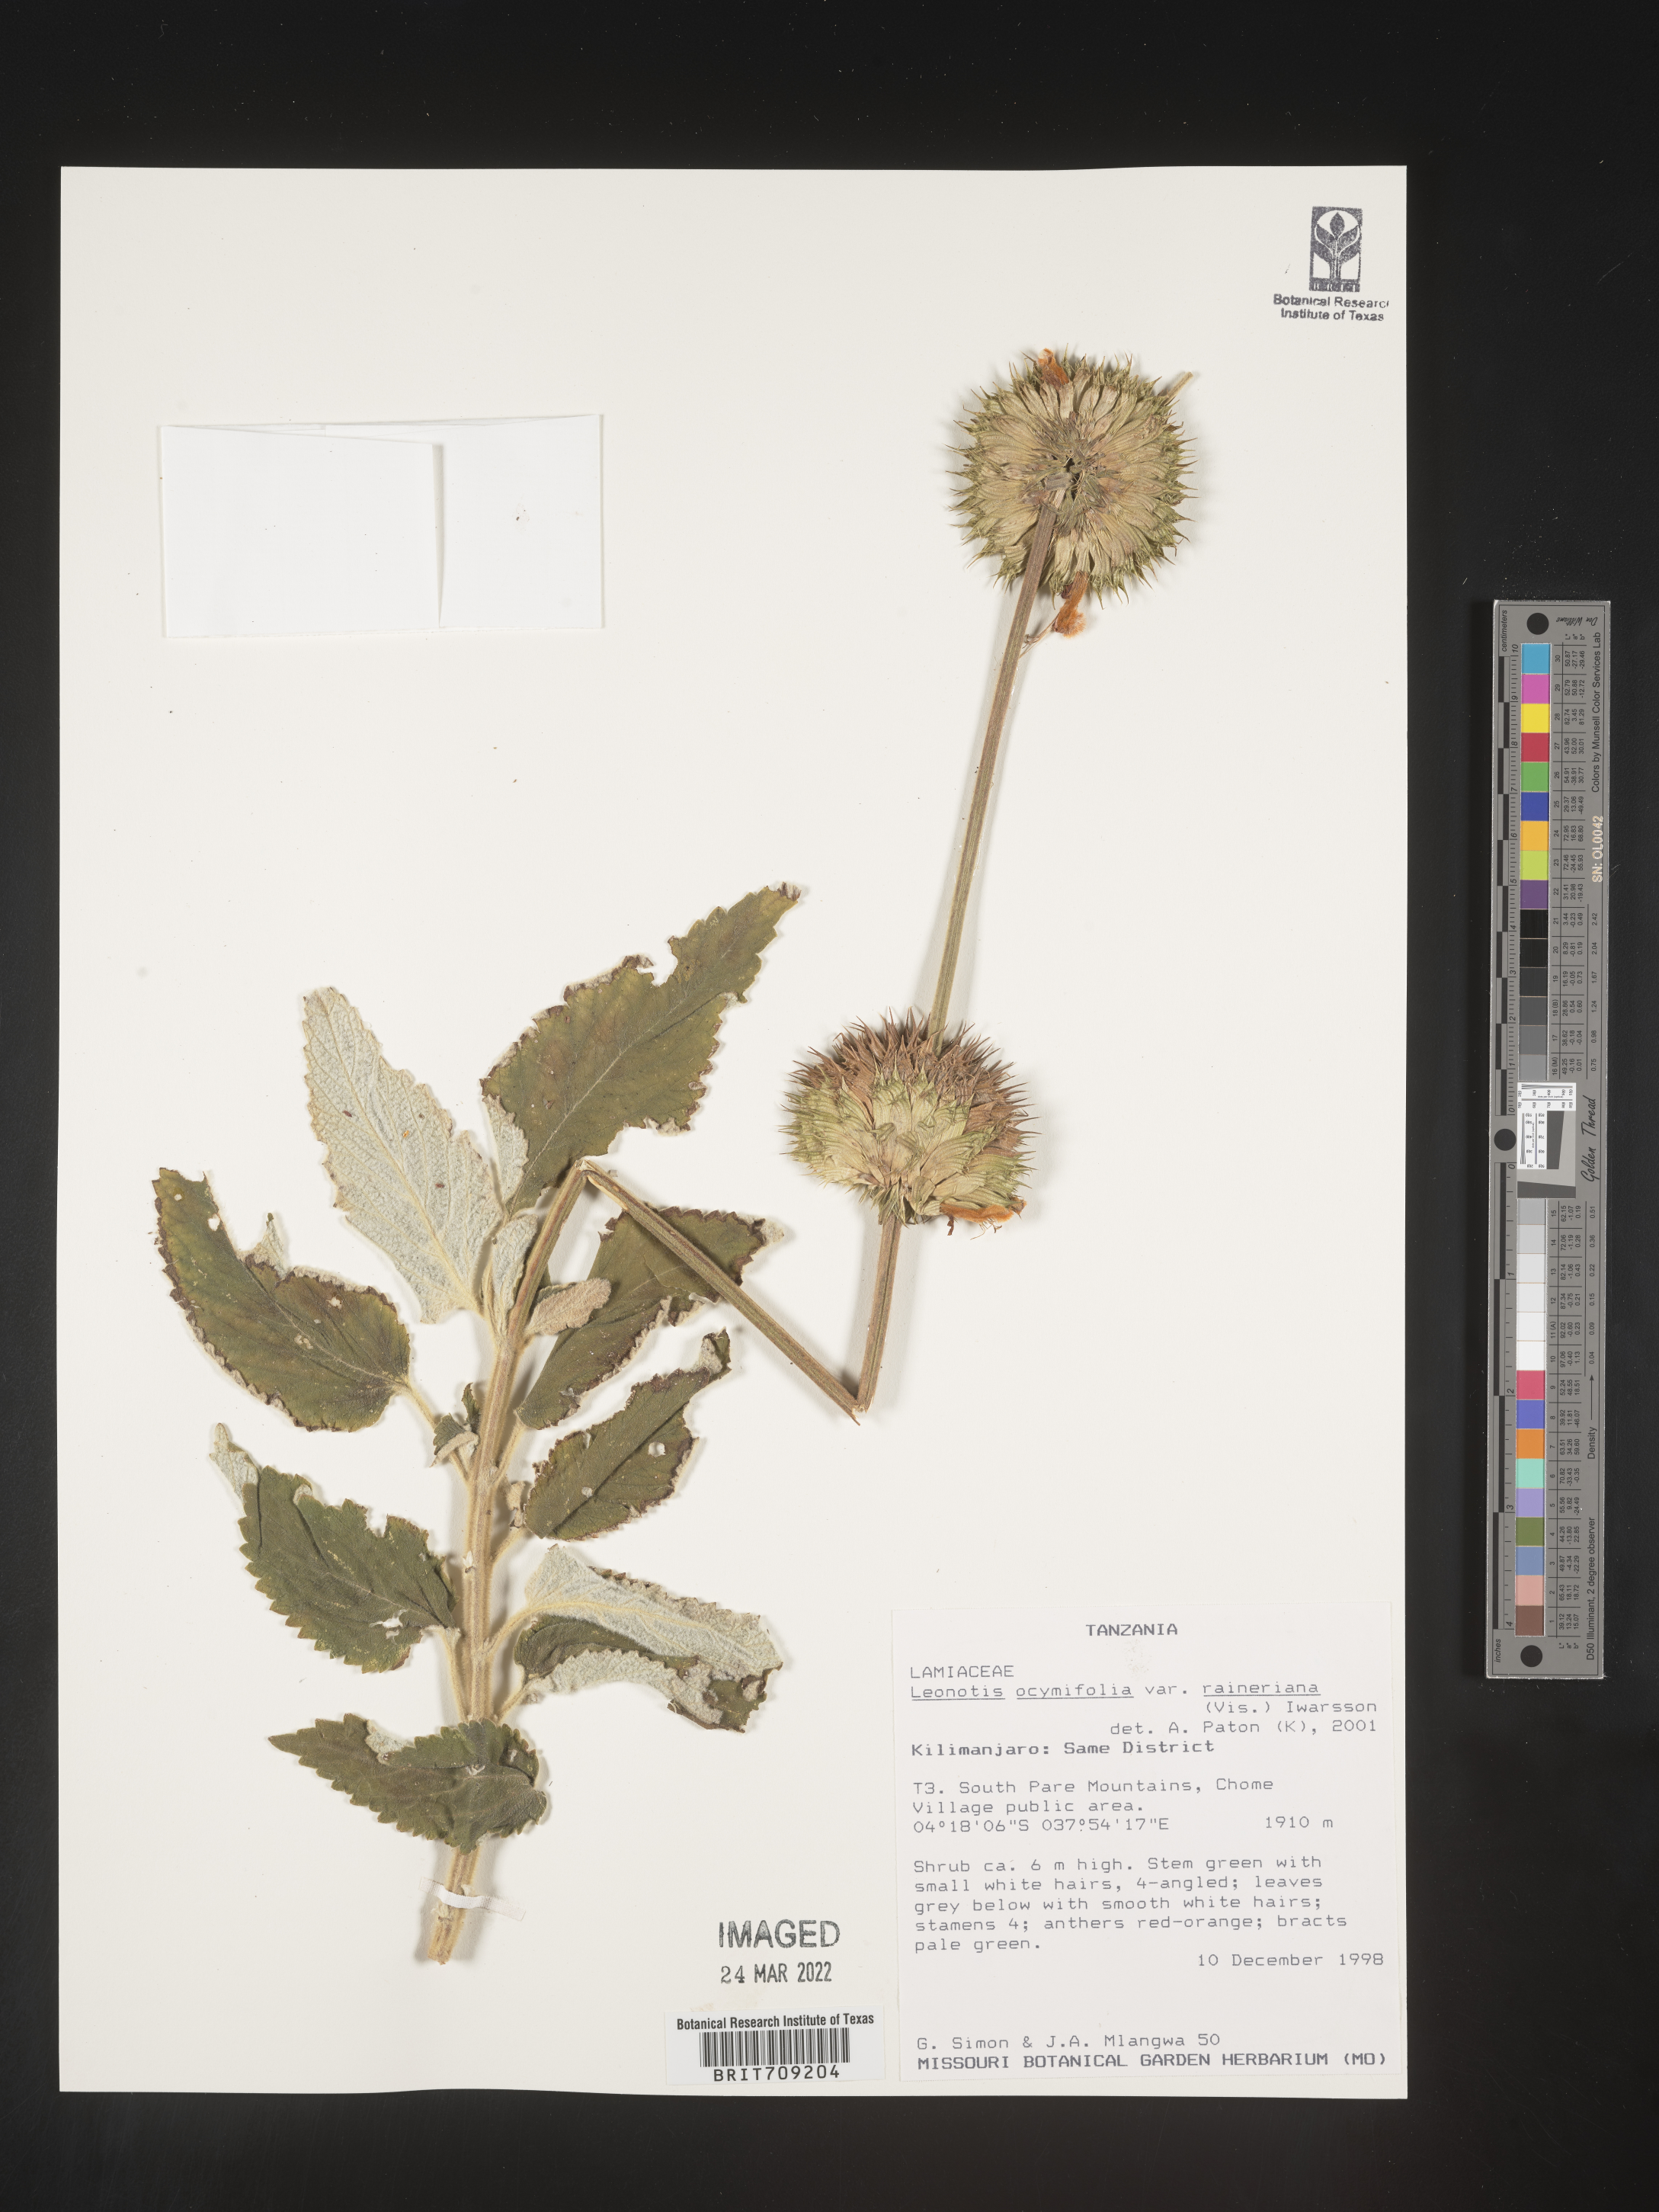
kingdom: Plantae
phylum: Tracheophyta
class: Magnoliopsida
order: Lamiales
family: Lamiaceae
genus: Leonotis
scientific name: Leonotis
